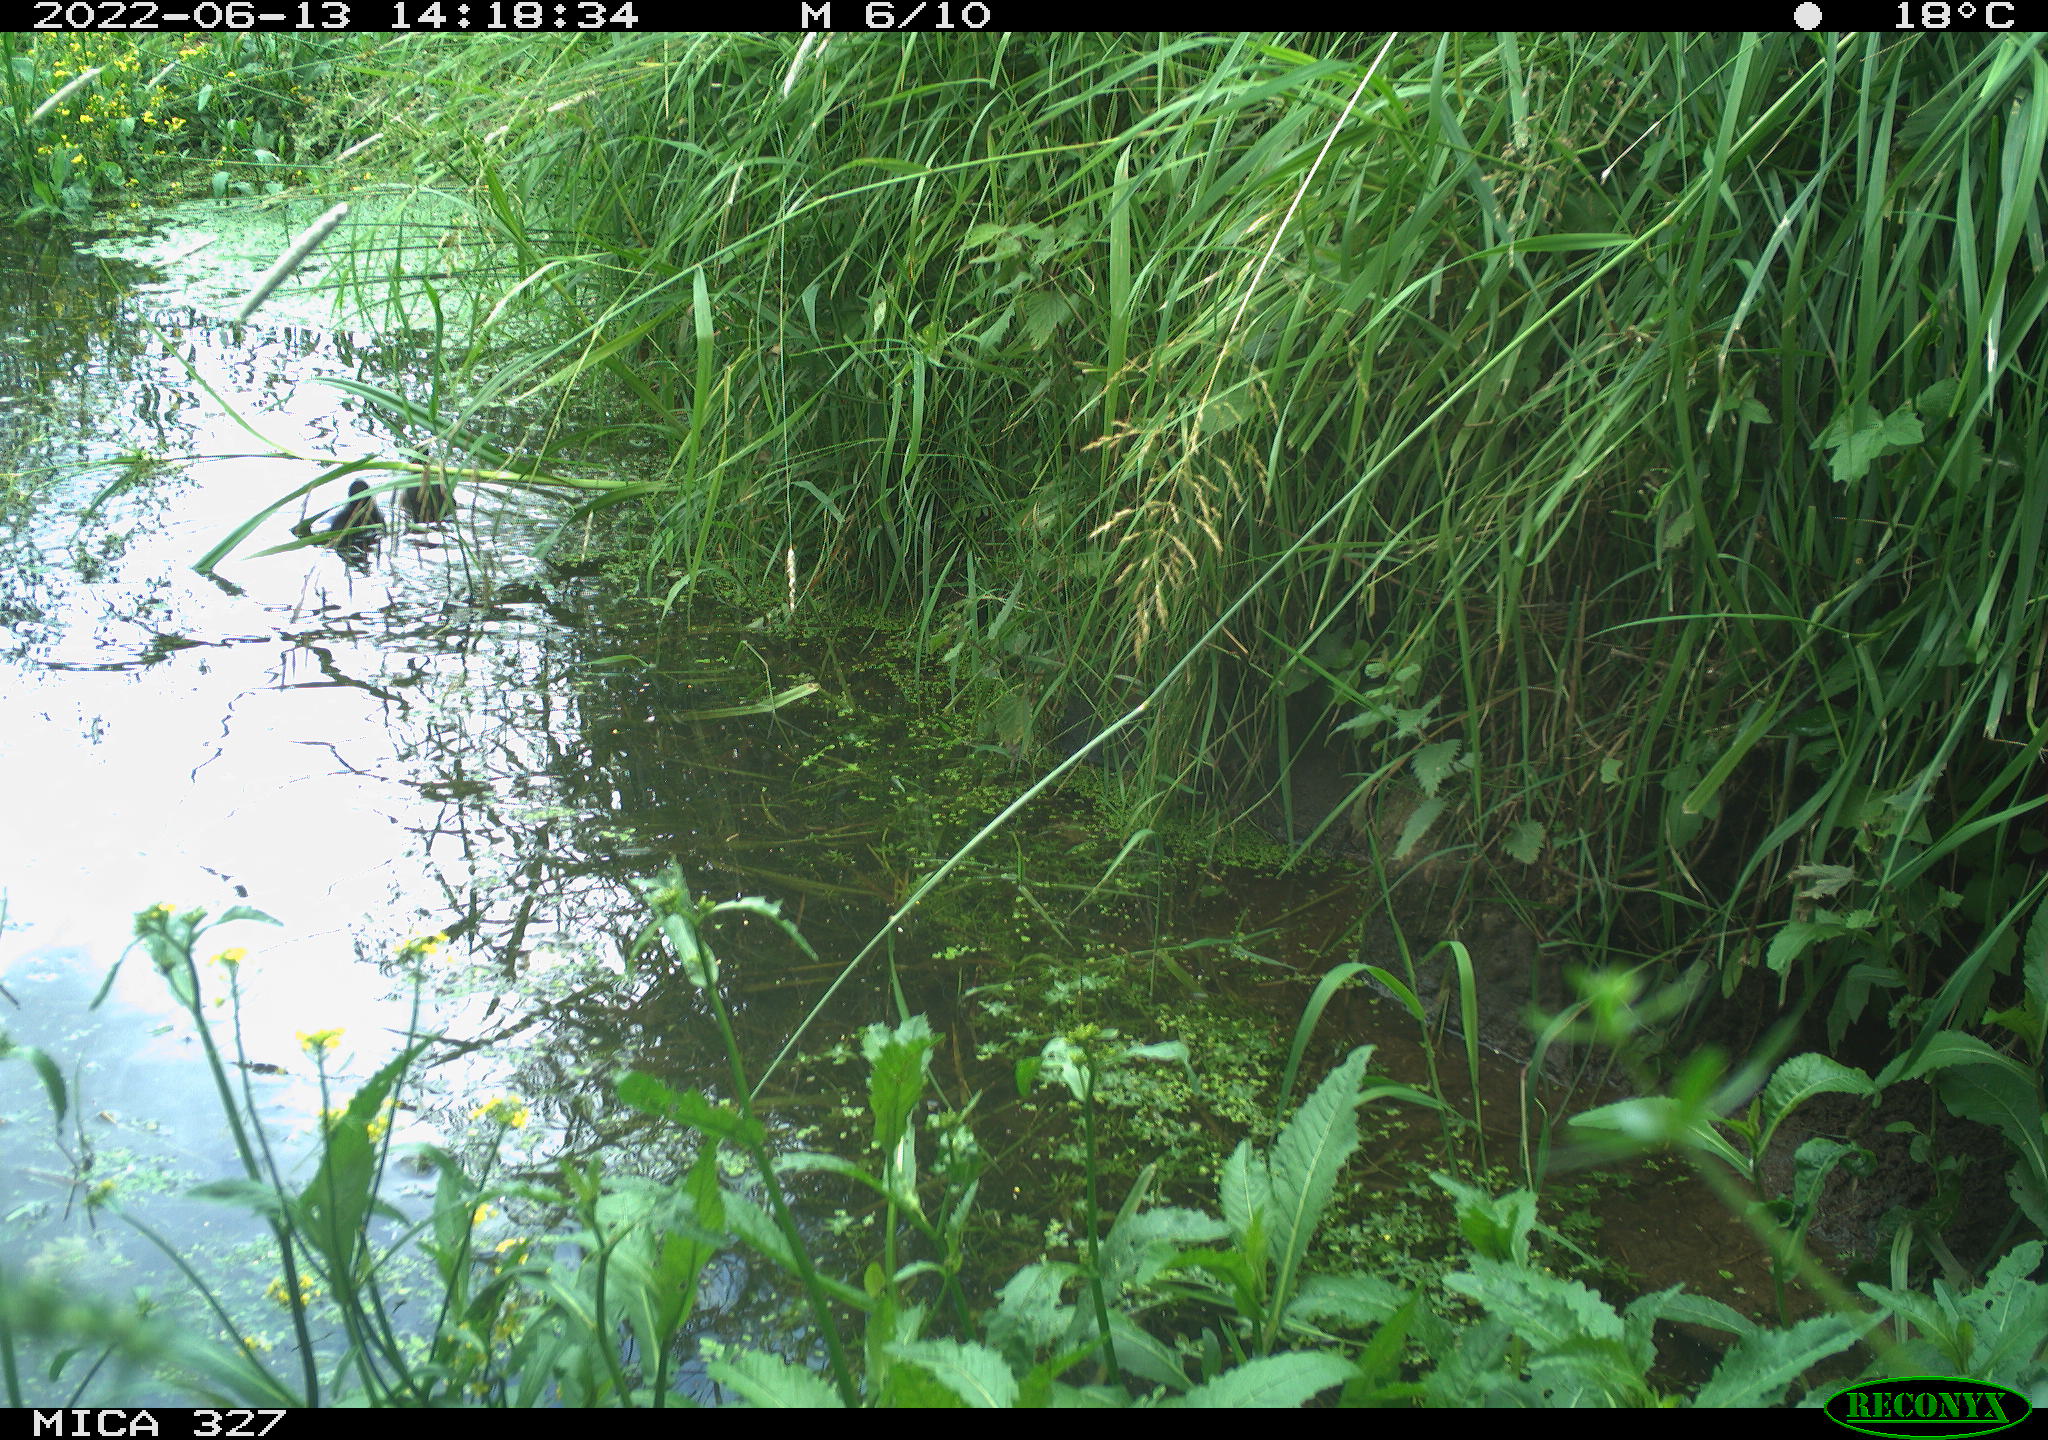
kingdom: Animalia
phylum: Chordata
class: Aves
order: Gruiformes
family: Rallidae
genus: Gallinula
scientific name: Gallinula chloropus
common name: Common moorhen
